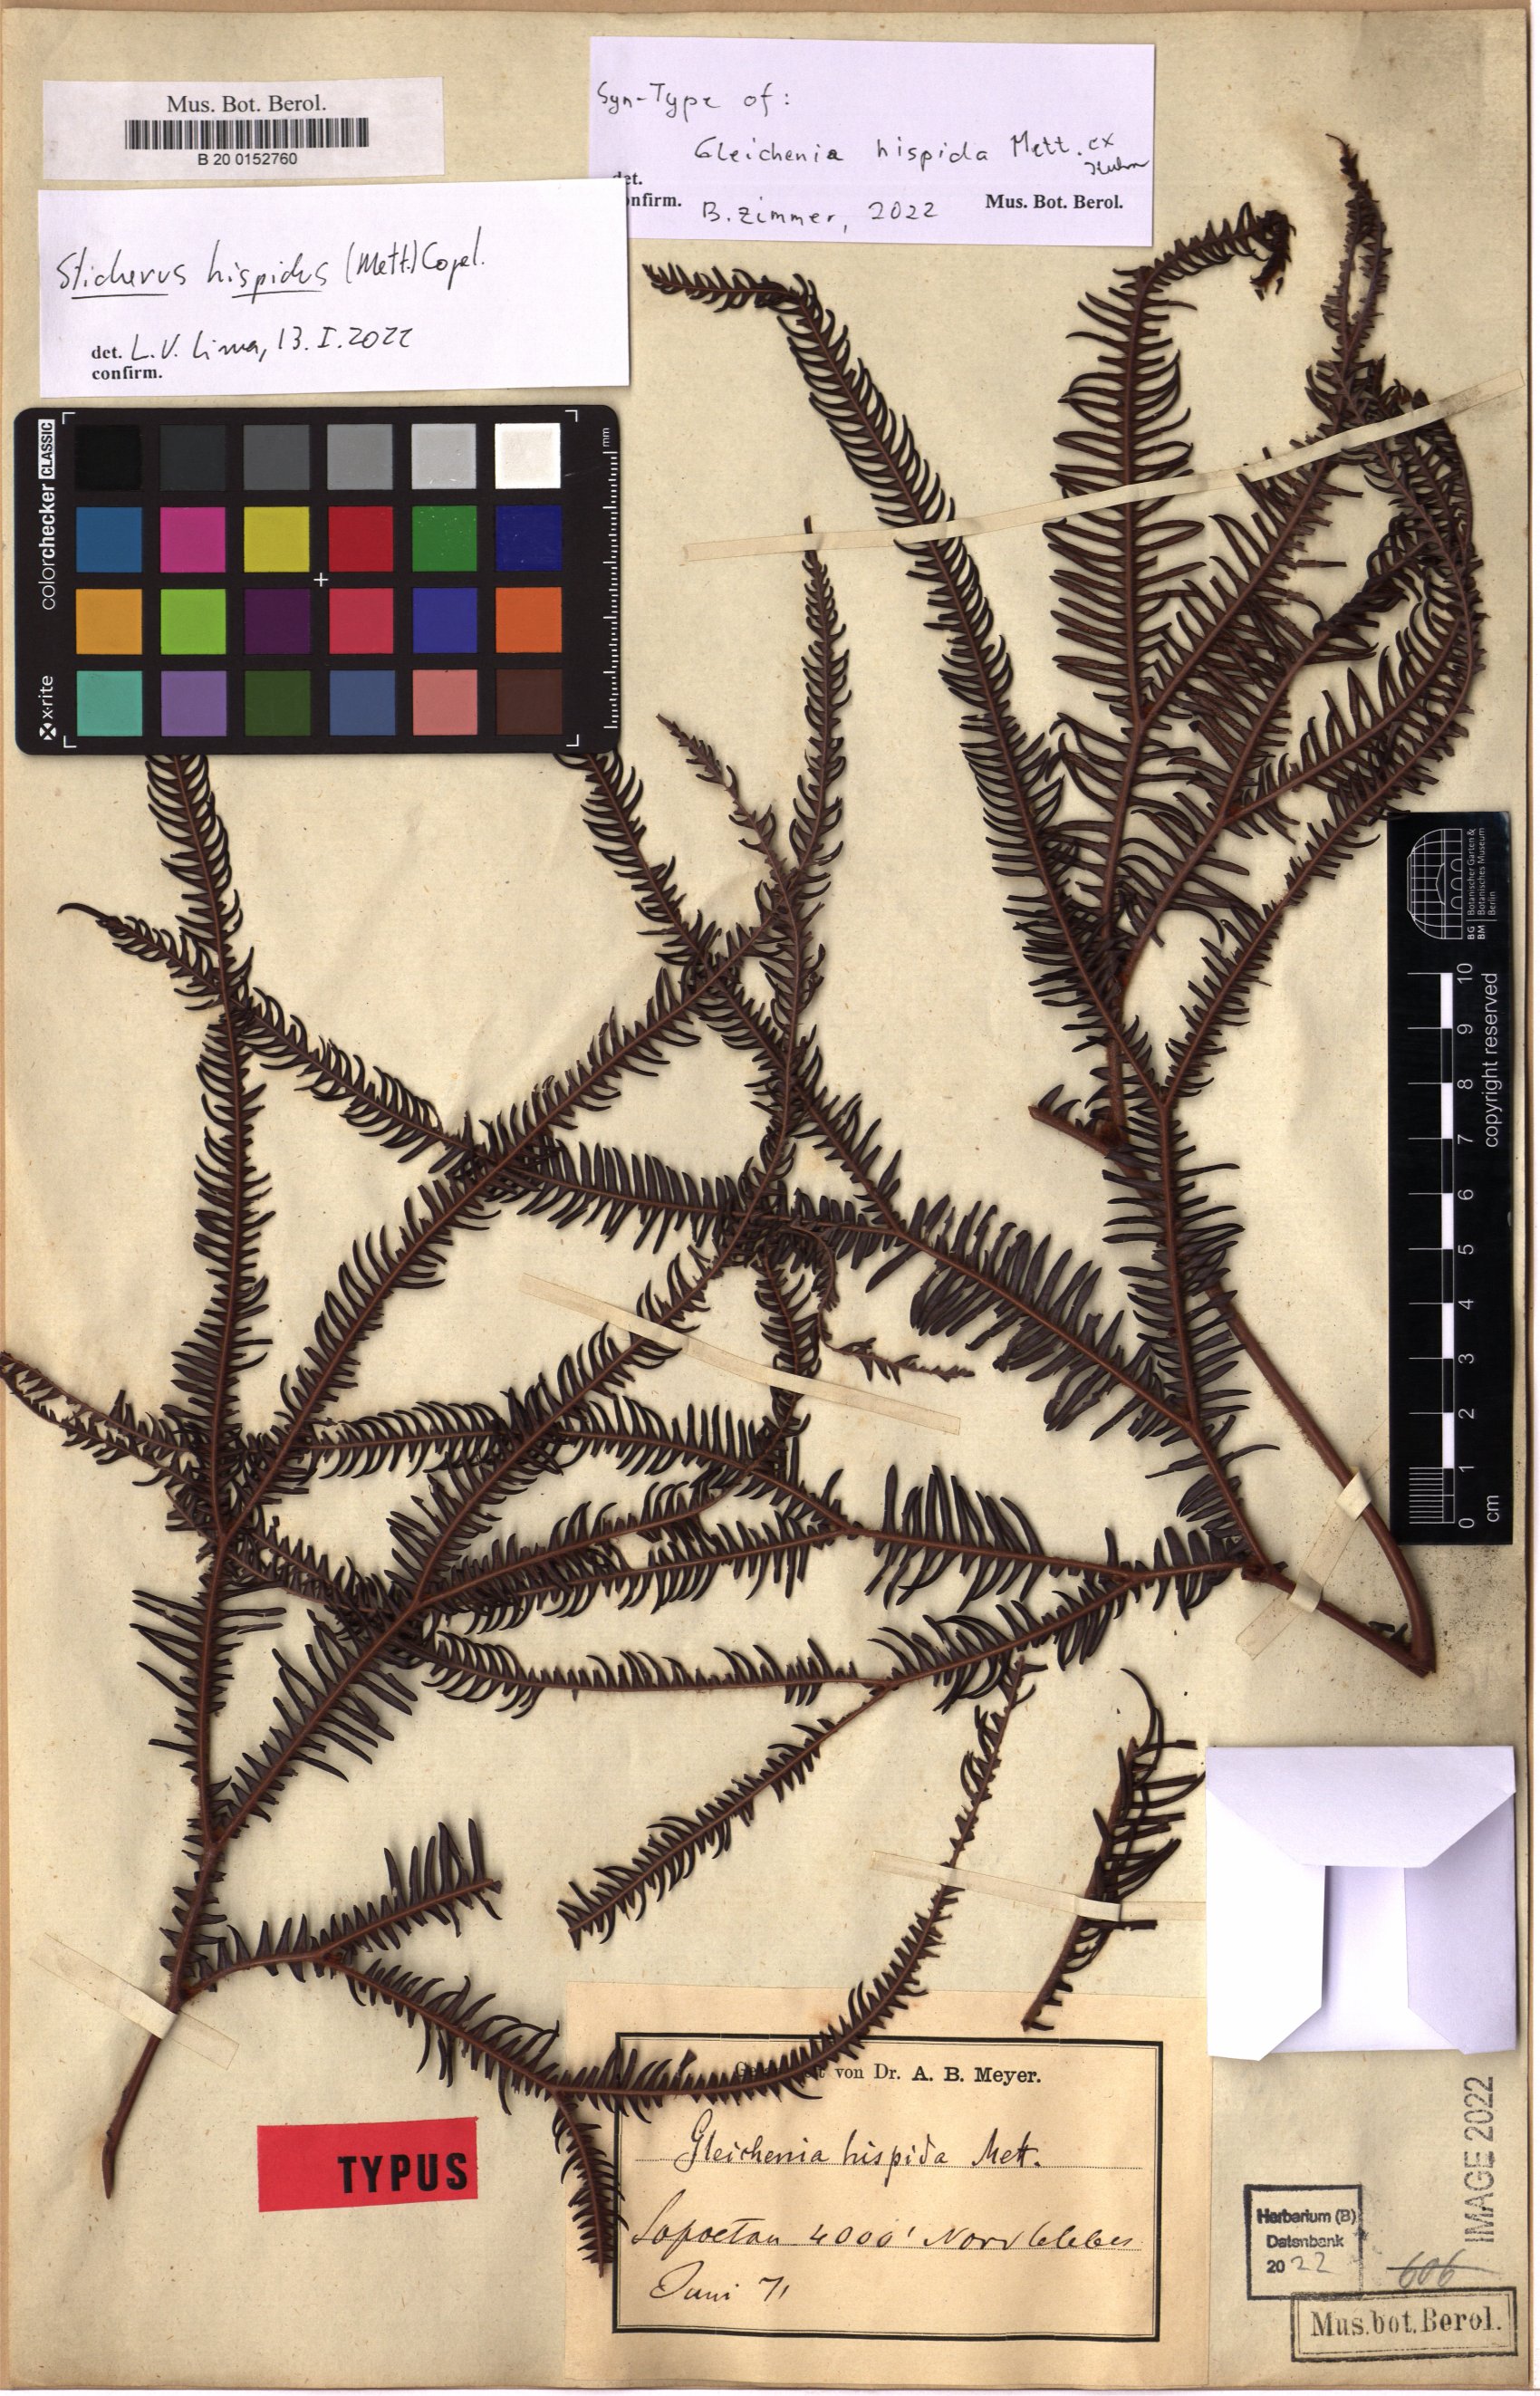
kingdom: Plantae
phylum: Tracheophyta
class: Polypodiopsida
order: Gleicheniales
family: Gleicheniaceae
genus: Sticherus
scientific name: Sticherus hispidus
